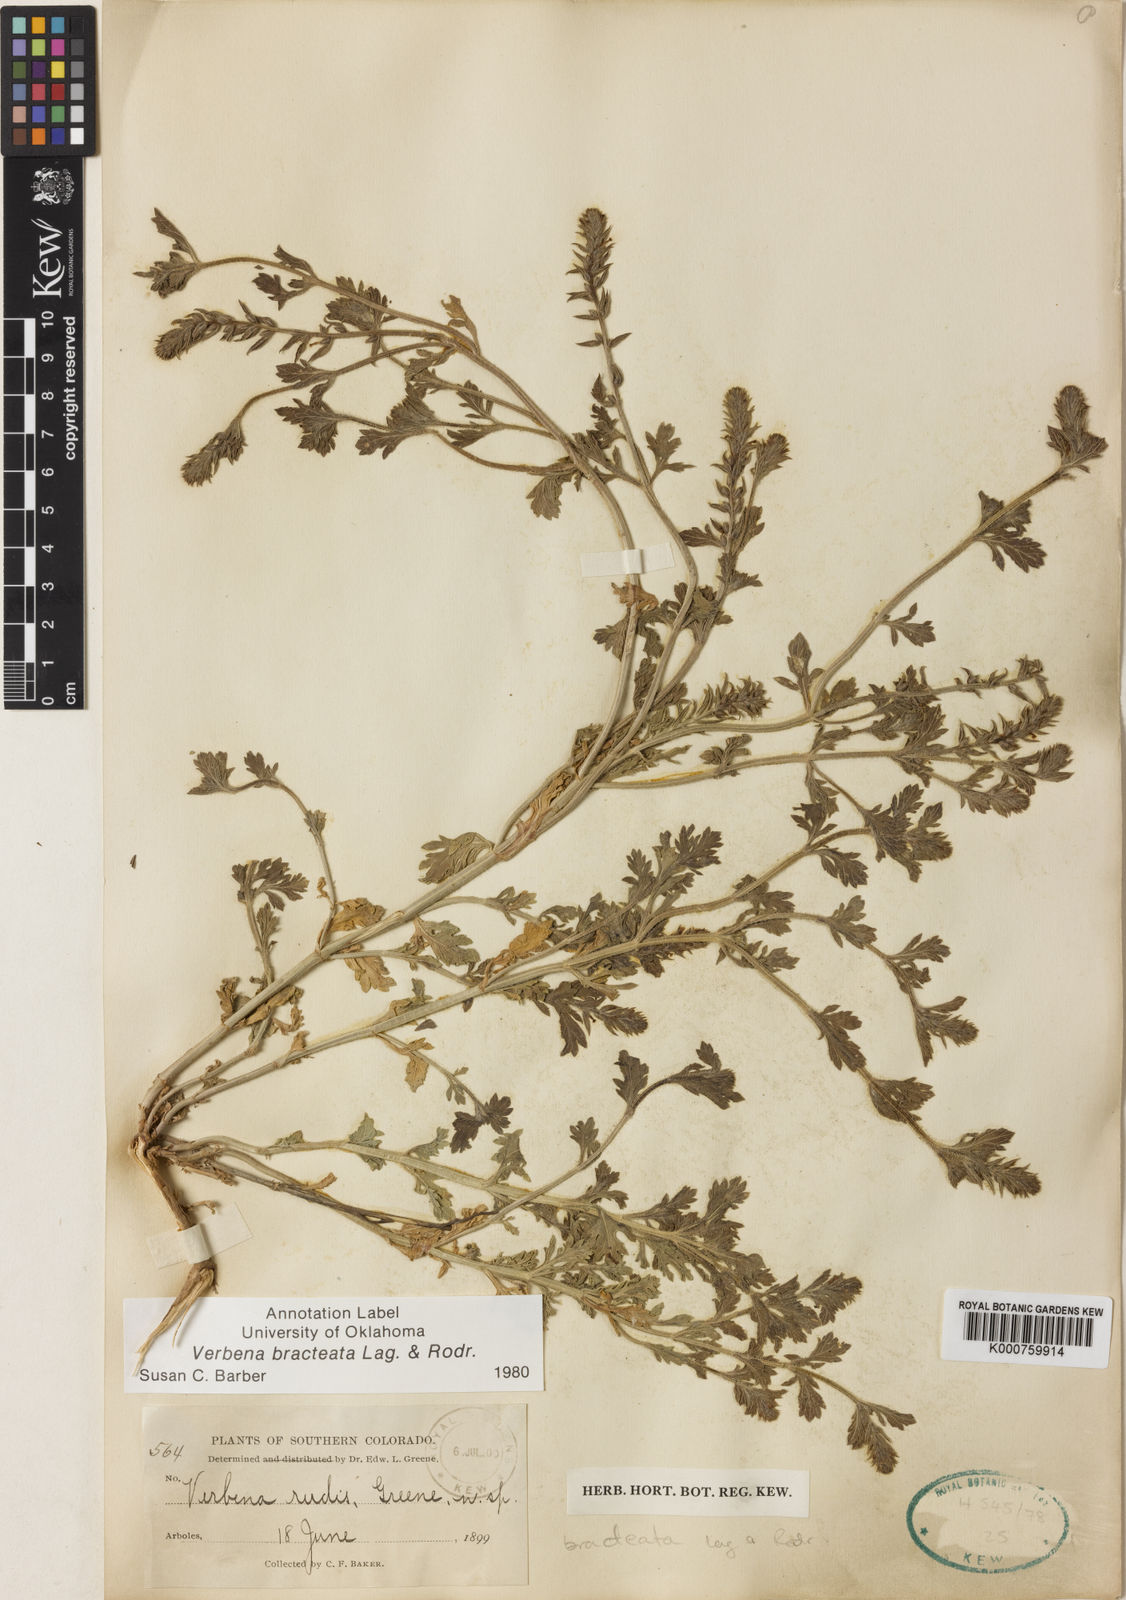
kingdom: Plantae
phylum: Tracheophyta
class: Magnoliopsida
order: Lamiales
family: Verbenaceae
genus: Verbena
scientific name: Verbena bracteata
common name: Bracted vervain
